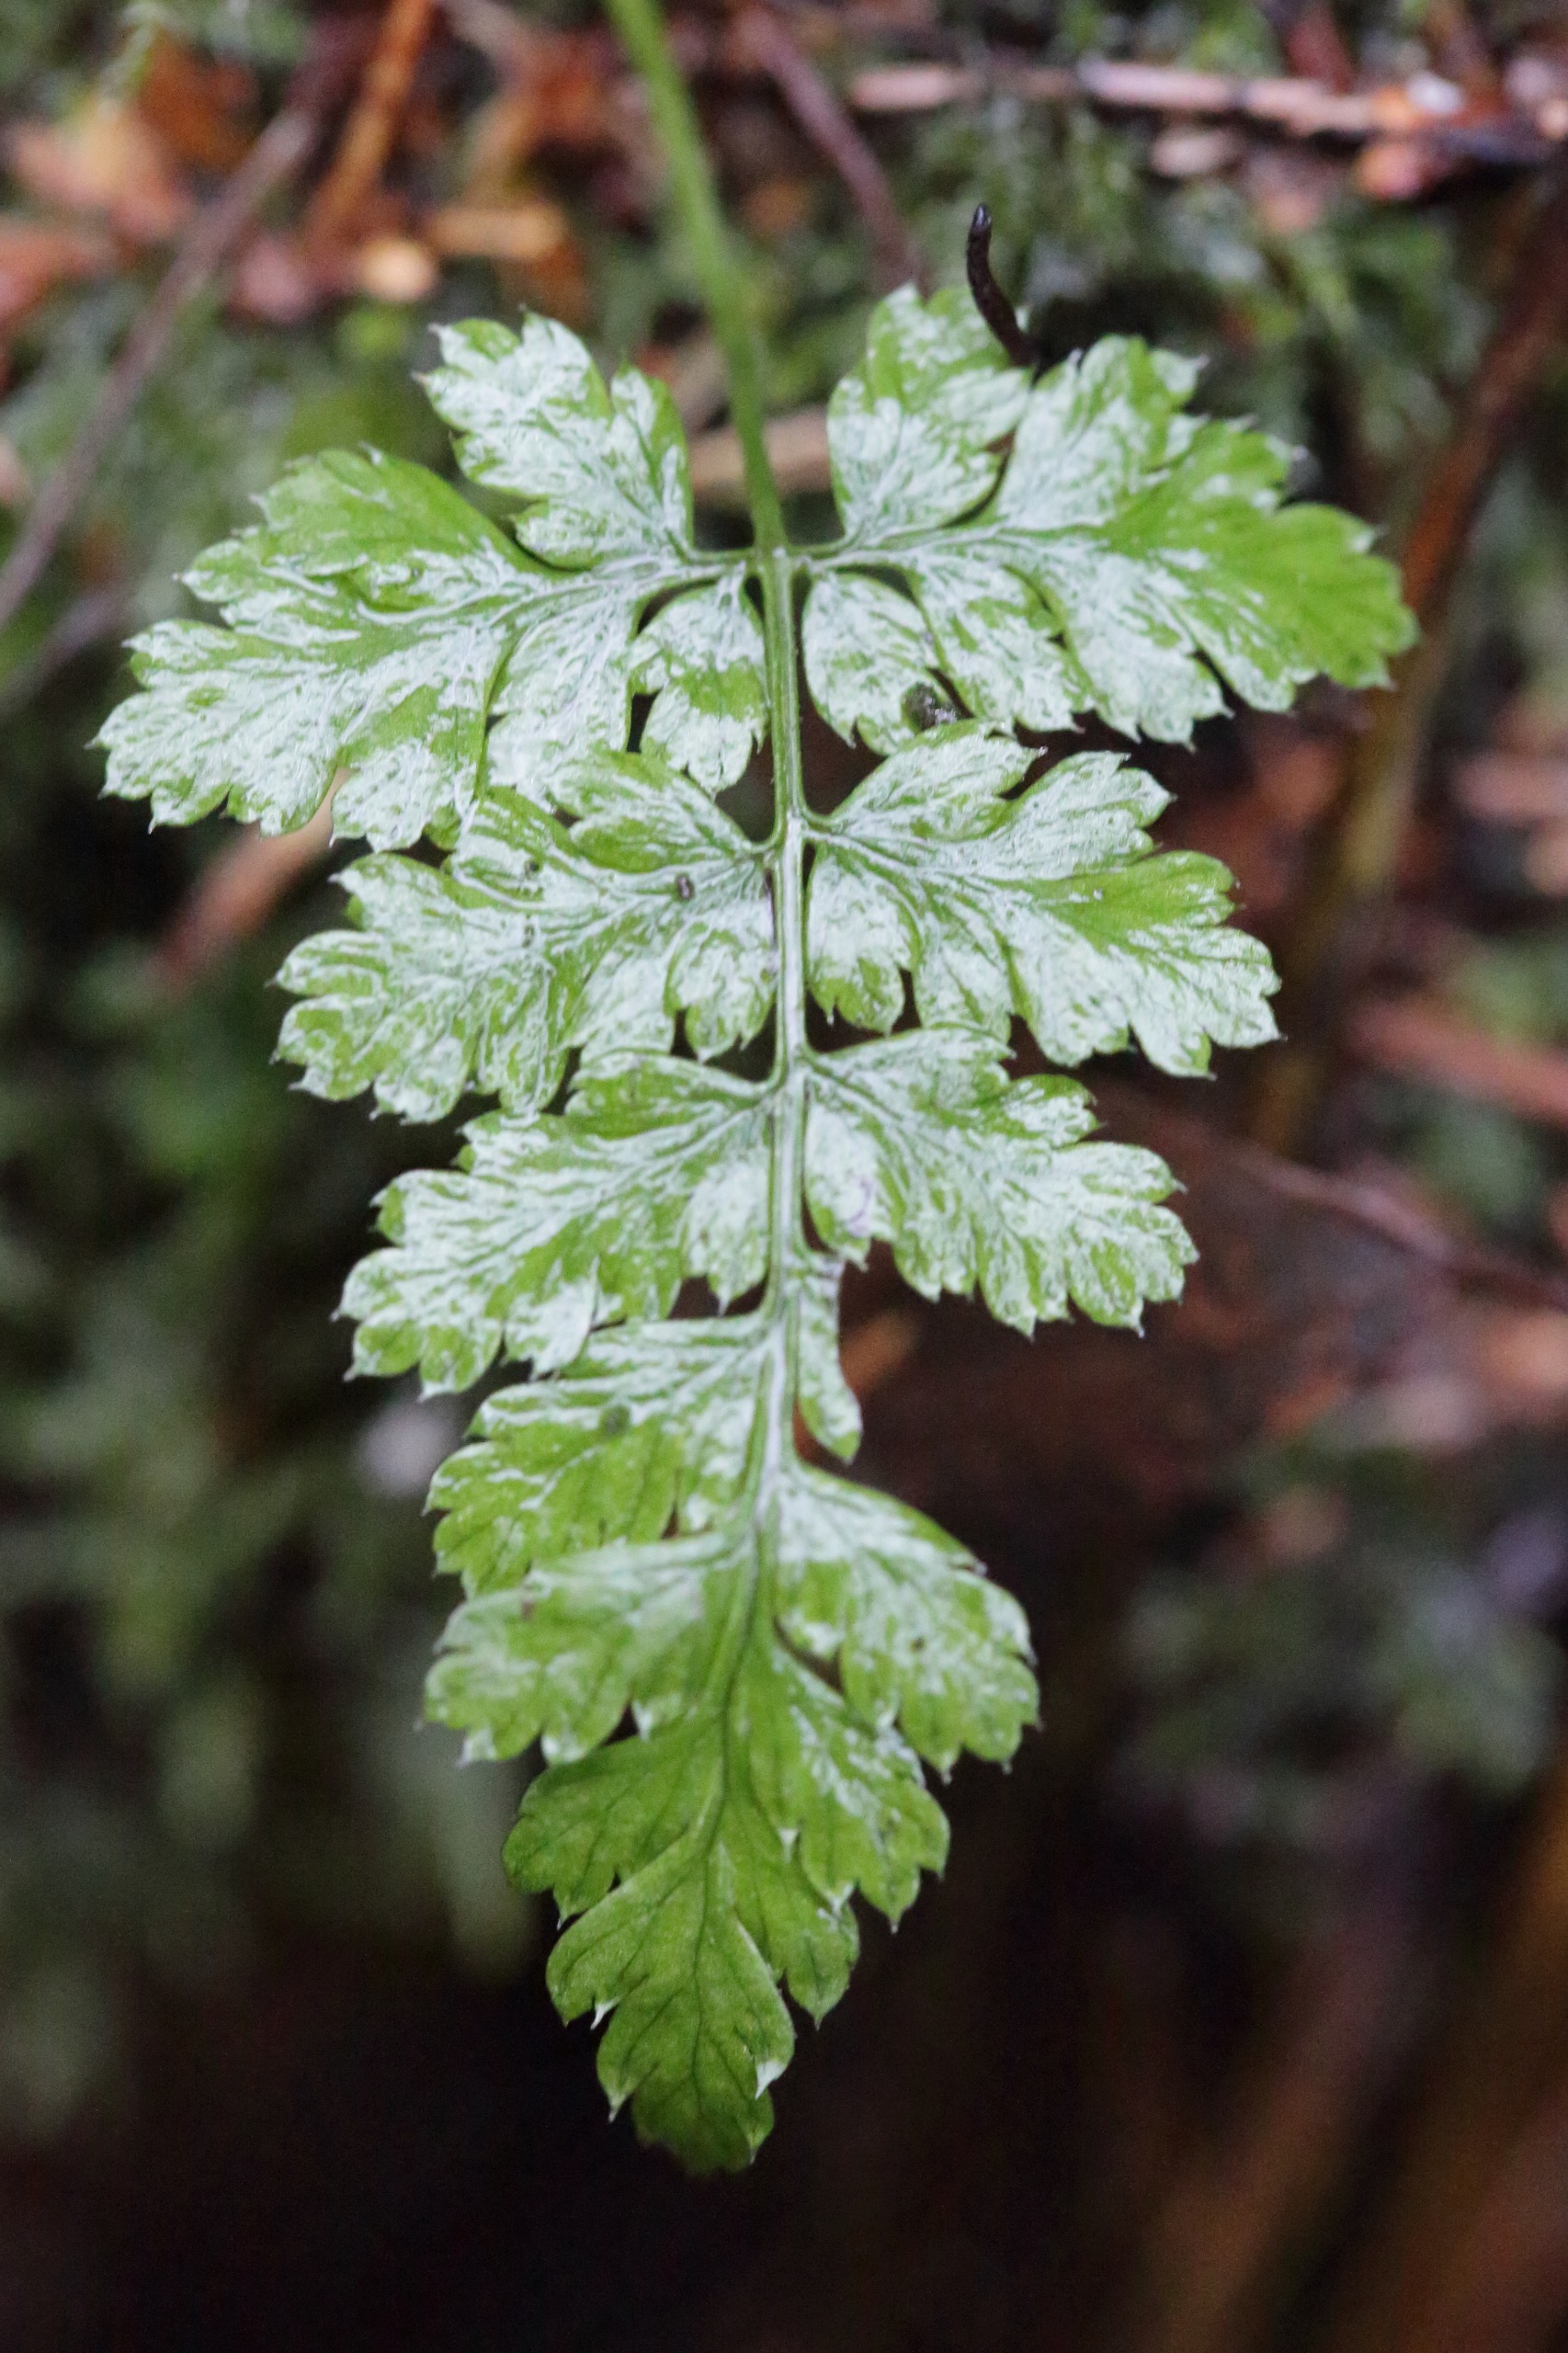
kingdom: Plantae
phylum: Tracheophyta
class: Polypodiopsida
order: Polypodiales
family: Dryopteridaceae
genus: Dryopteris
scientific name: Dryopteris
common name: Mangeløv (Dryopteris-slægten)
